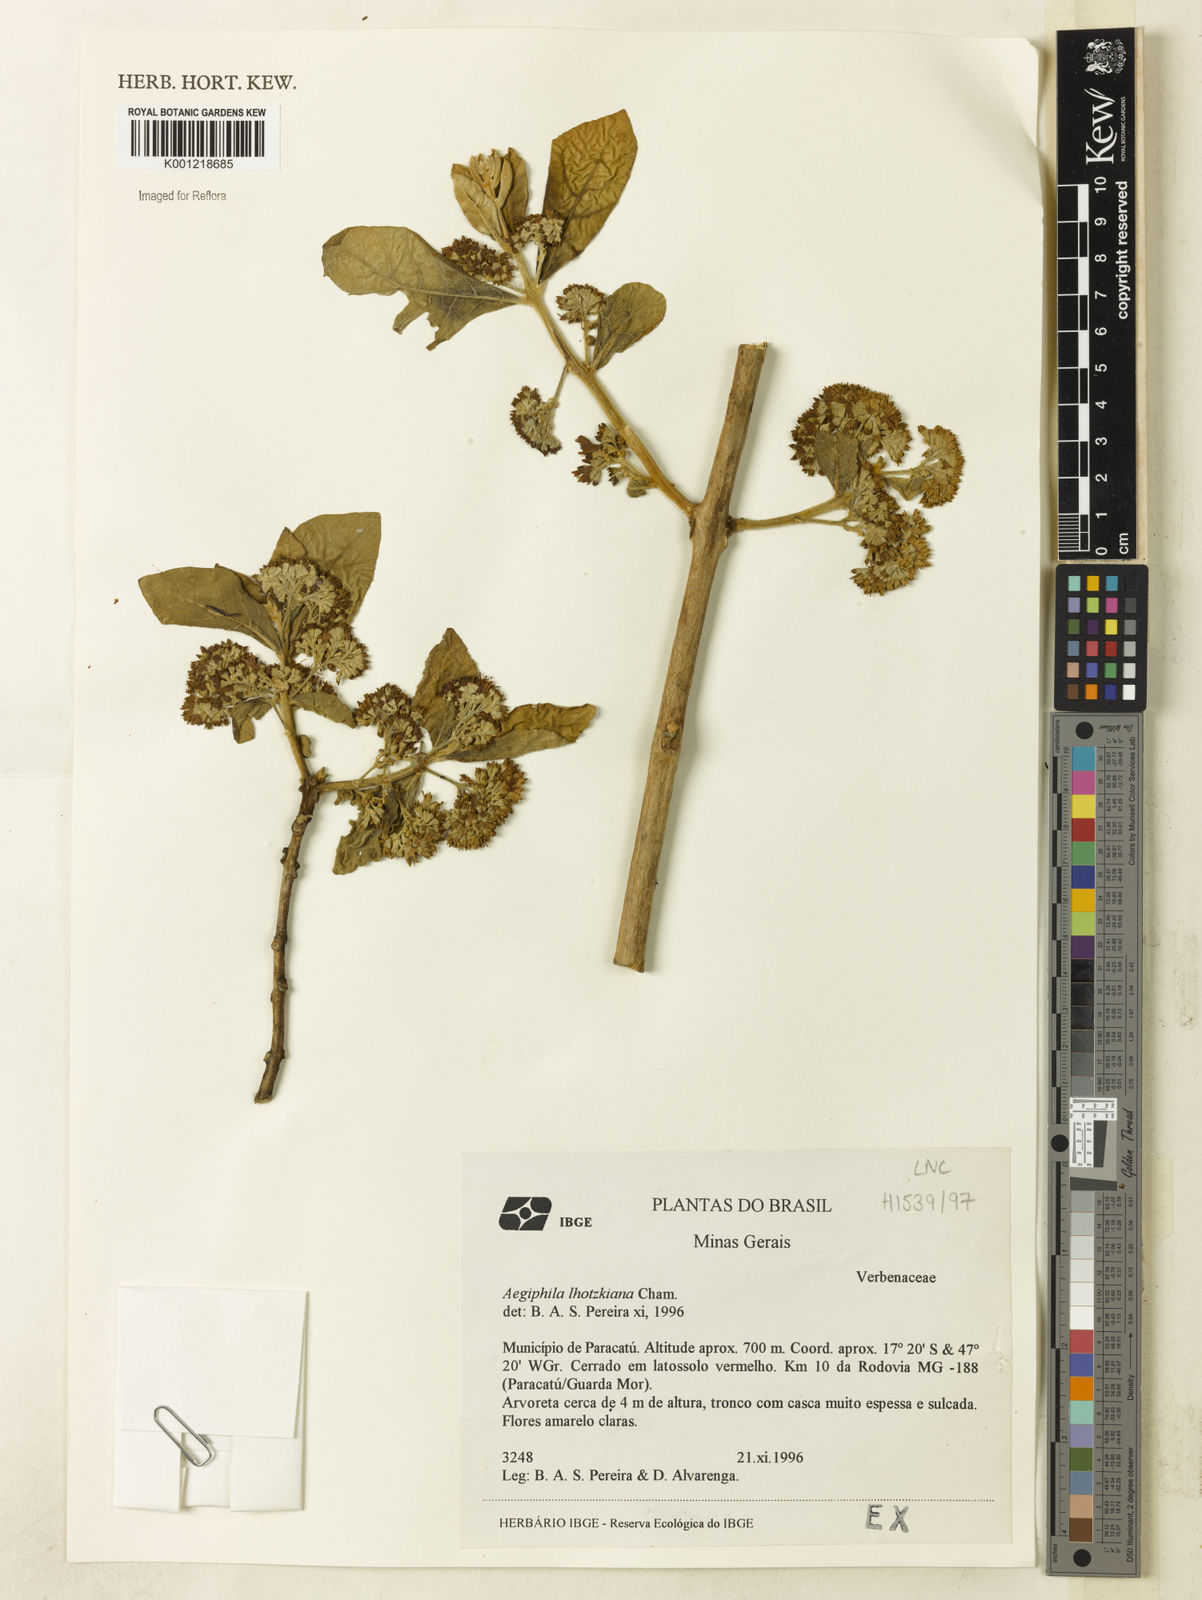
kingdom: Plantae
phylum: Tracheophyta
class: Magnoliopsida
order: Lamiales
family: Lamiaceae
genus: Aegiphila
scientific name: Aegiphila verticillata
